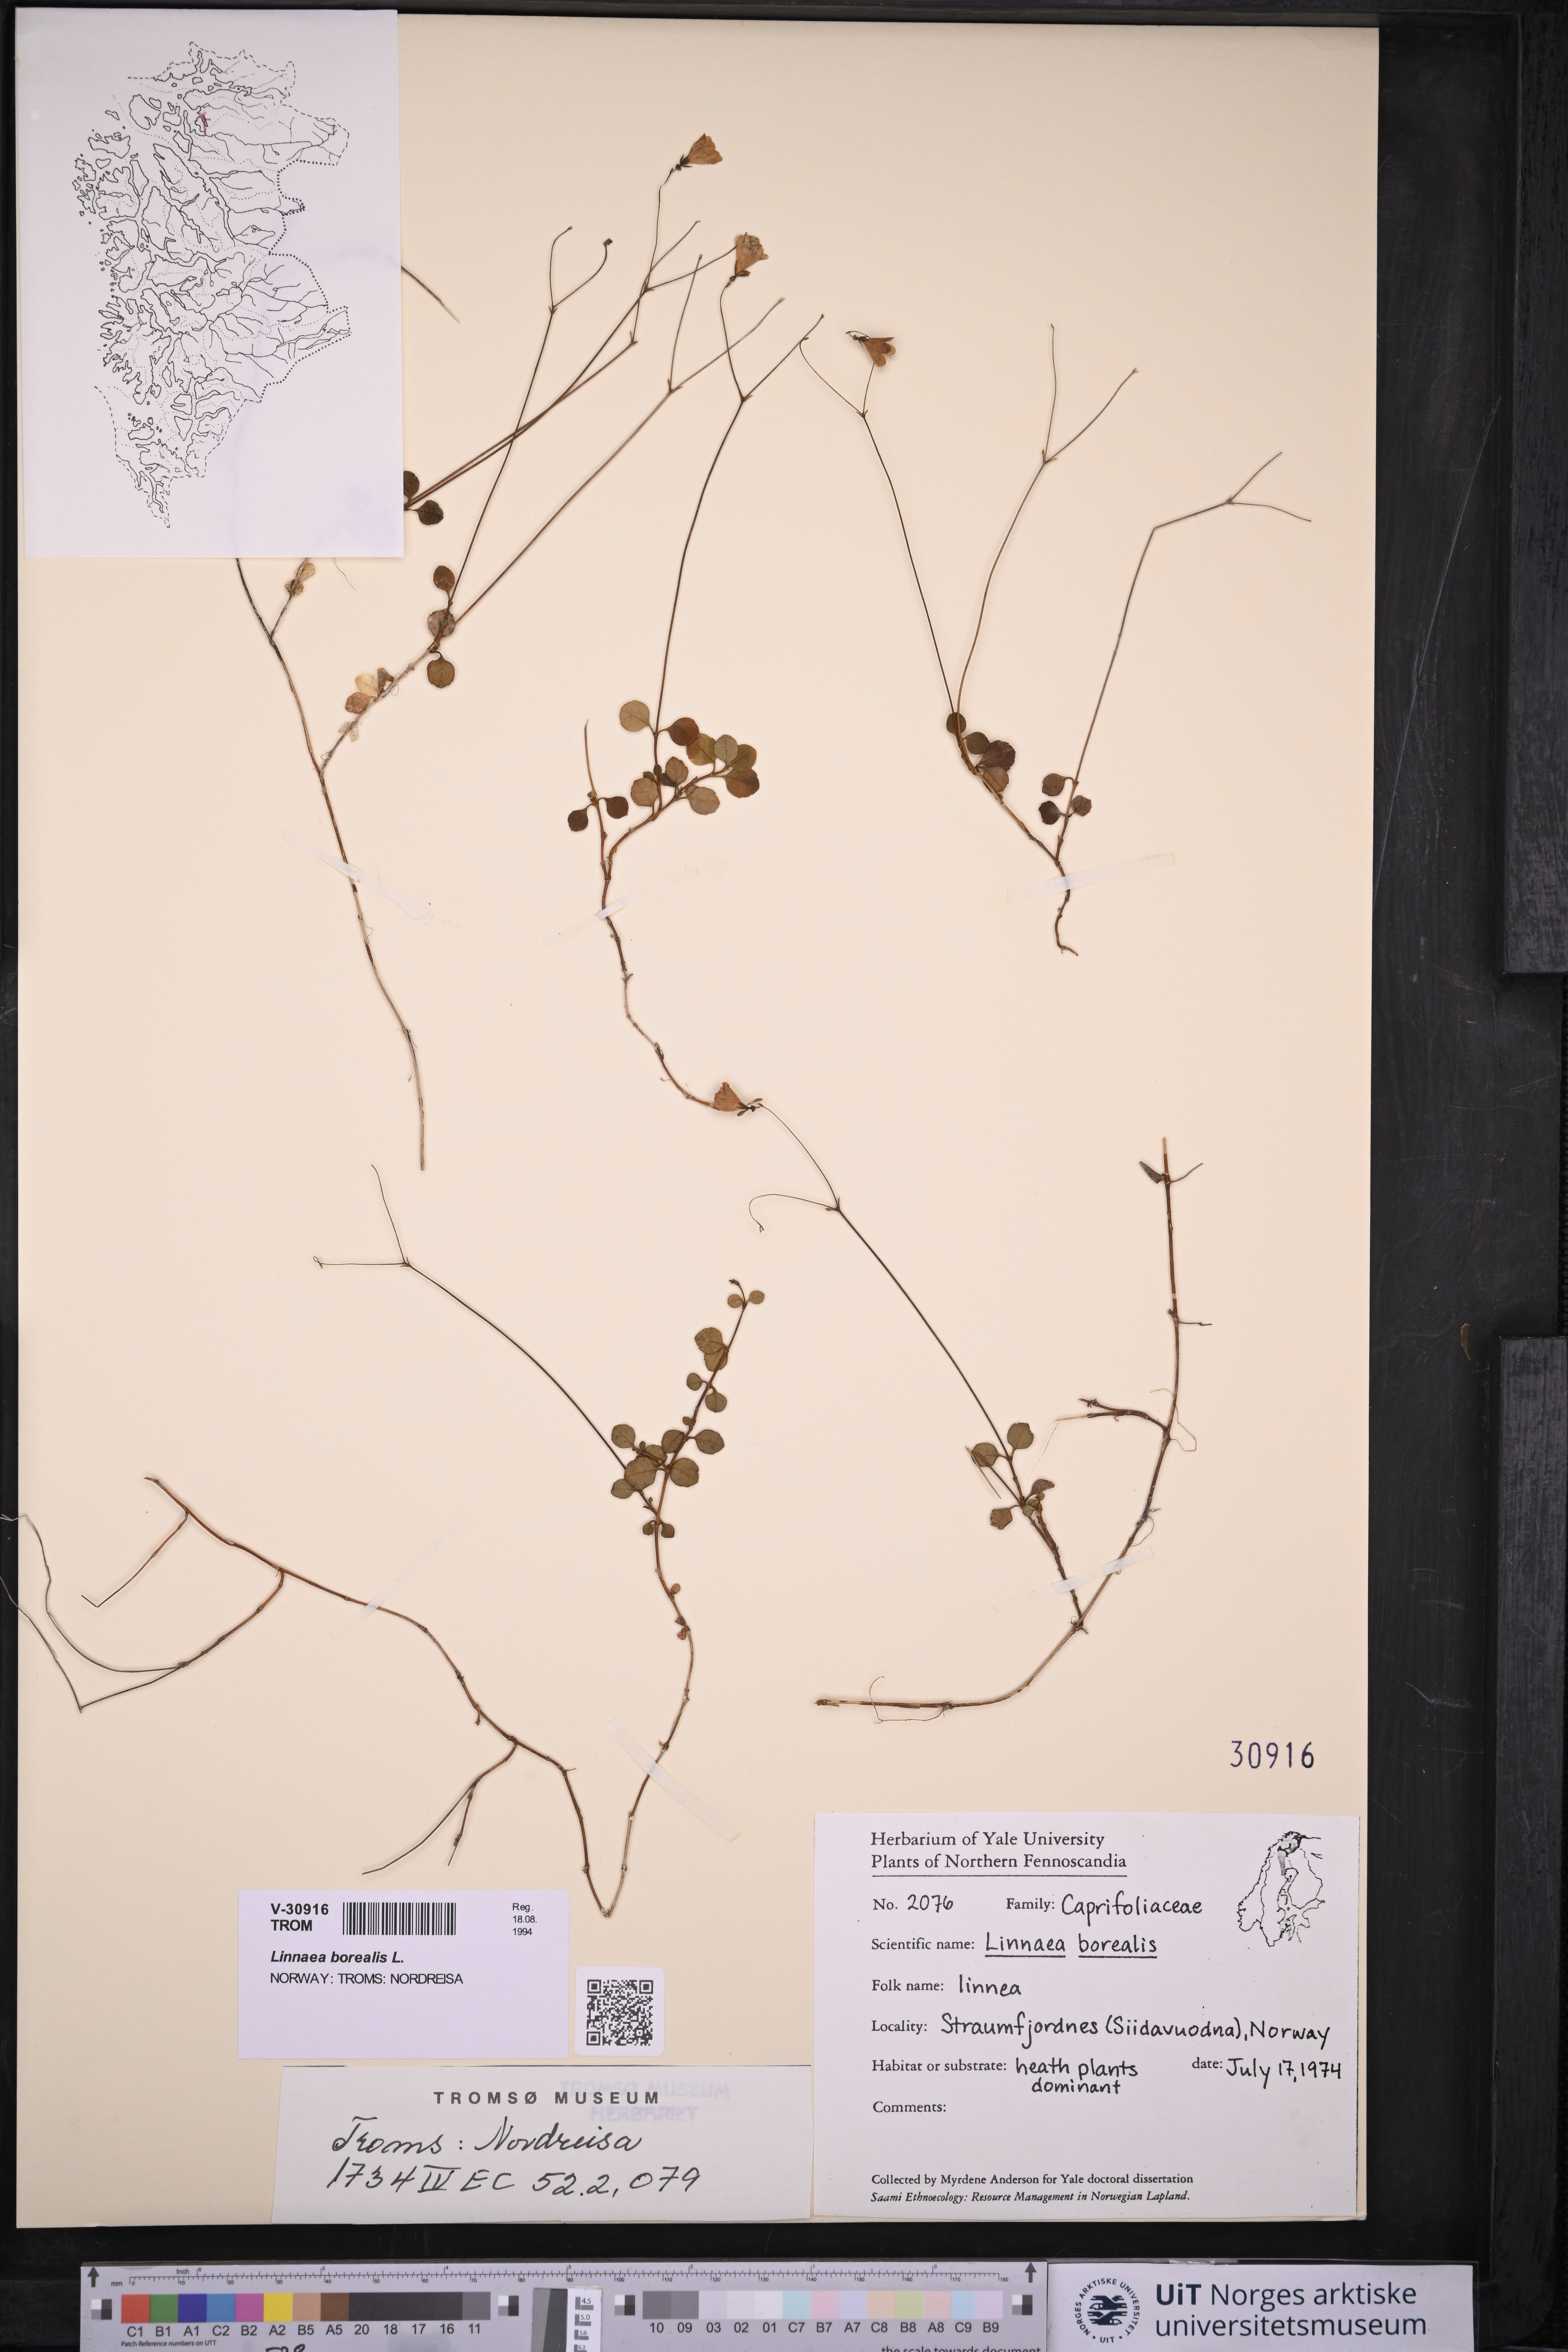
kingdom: Plantae
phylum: Tracheophyta
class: Magnoliopsida
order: Dipsacales
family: Caprifoliaceae
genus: Linnaea
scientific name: Linnaea borealis
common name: Twinflower
